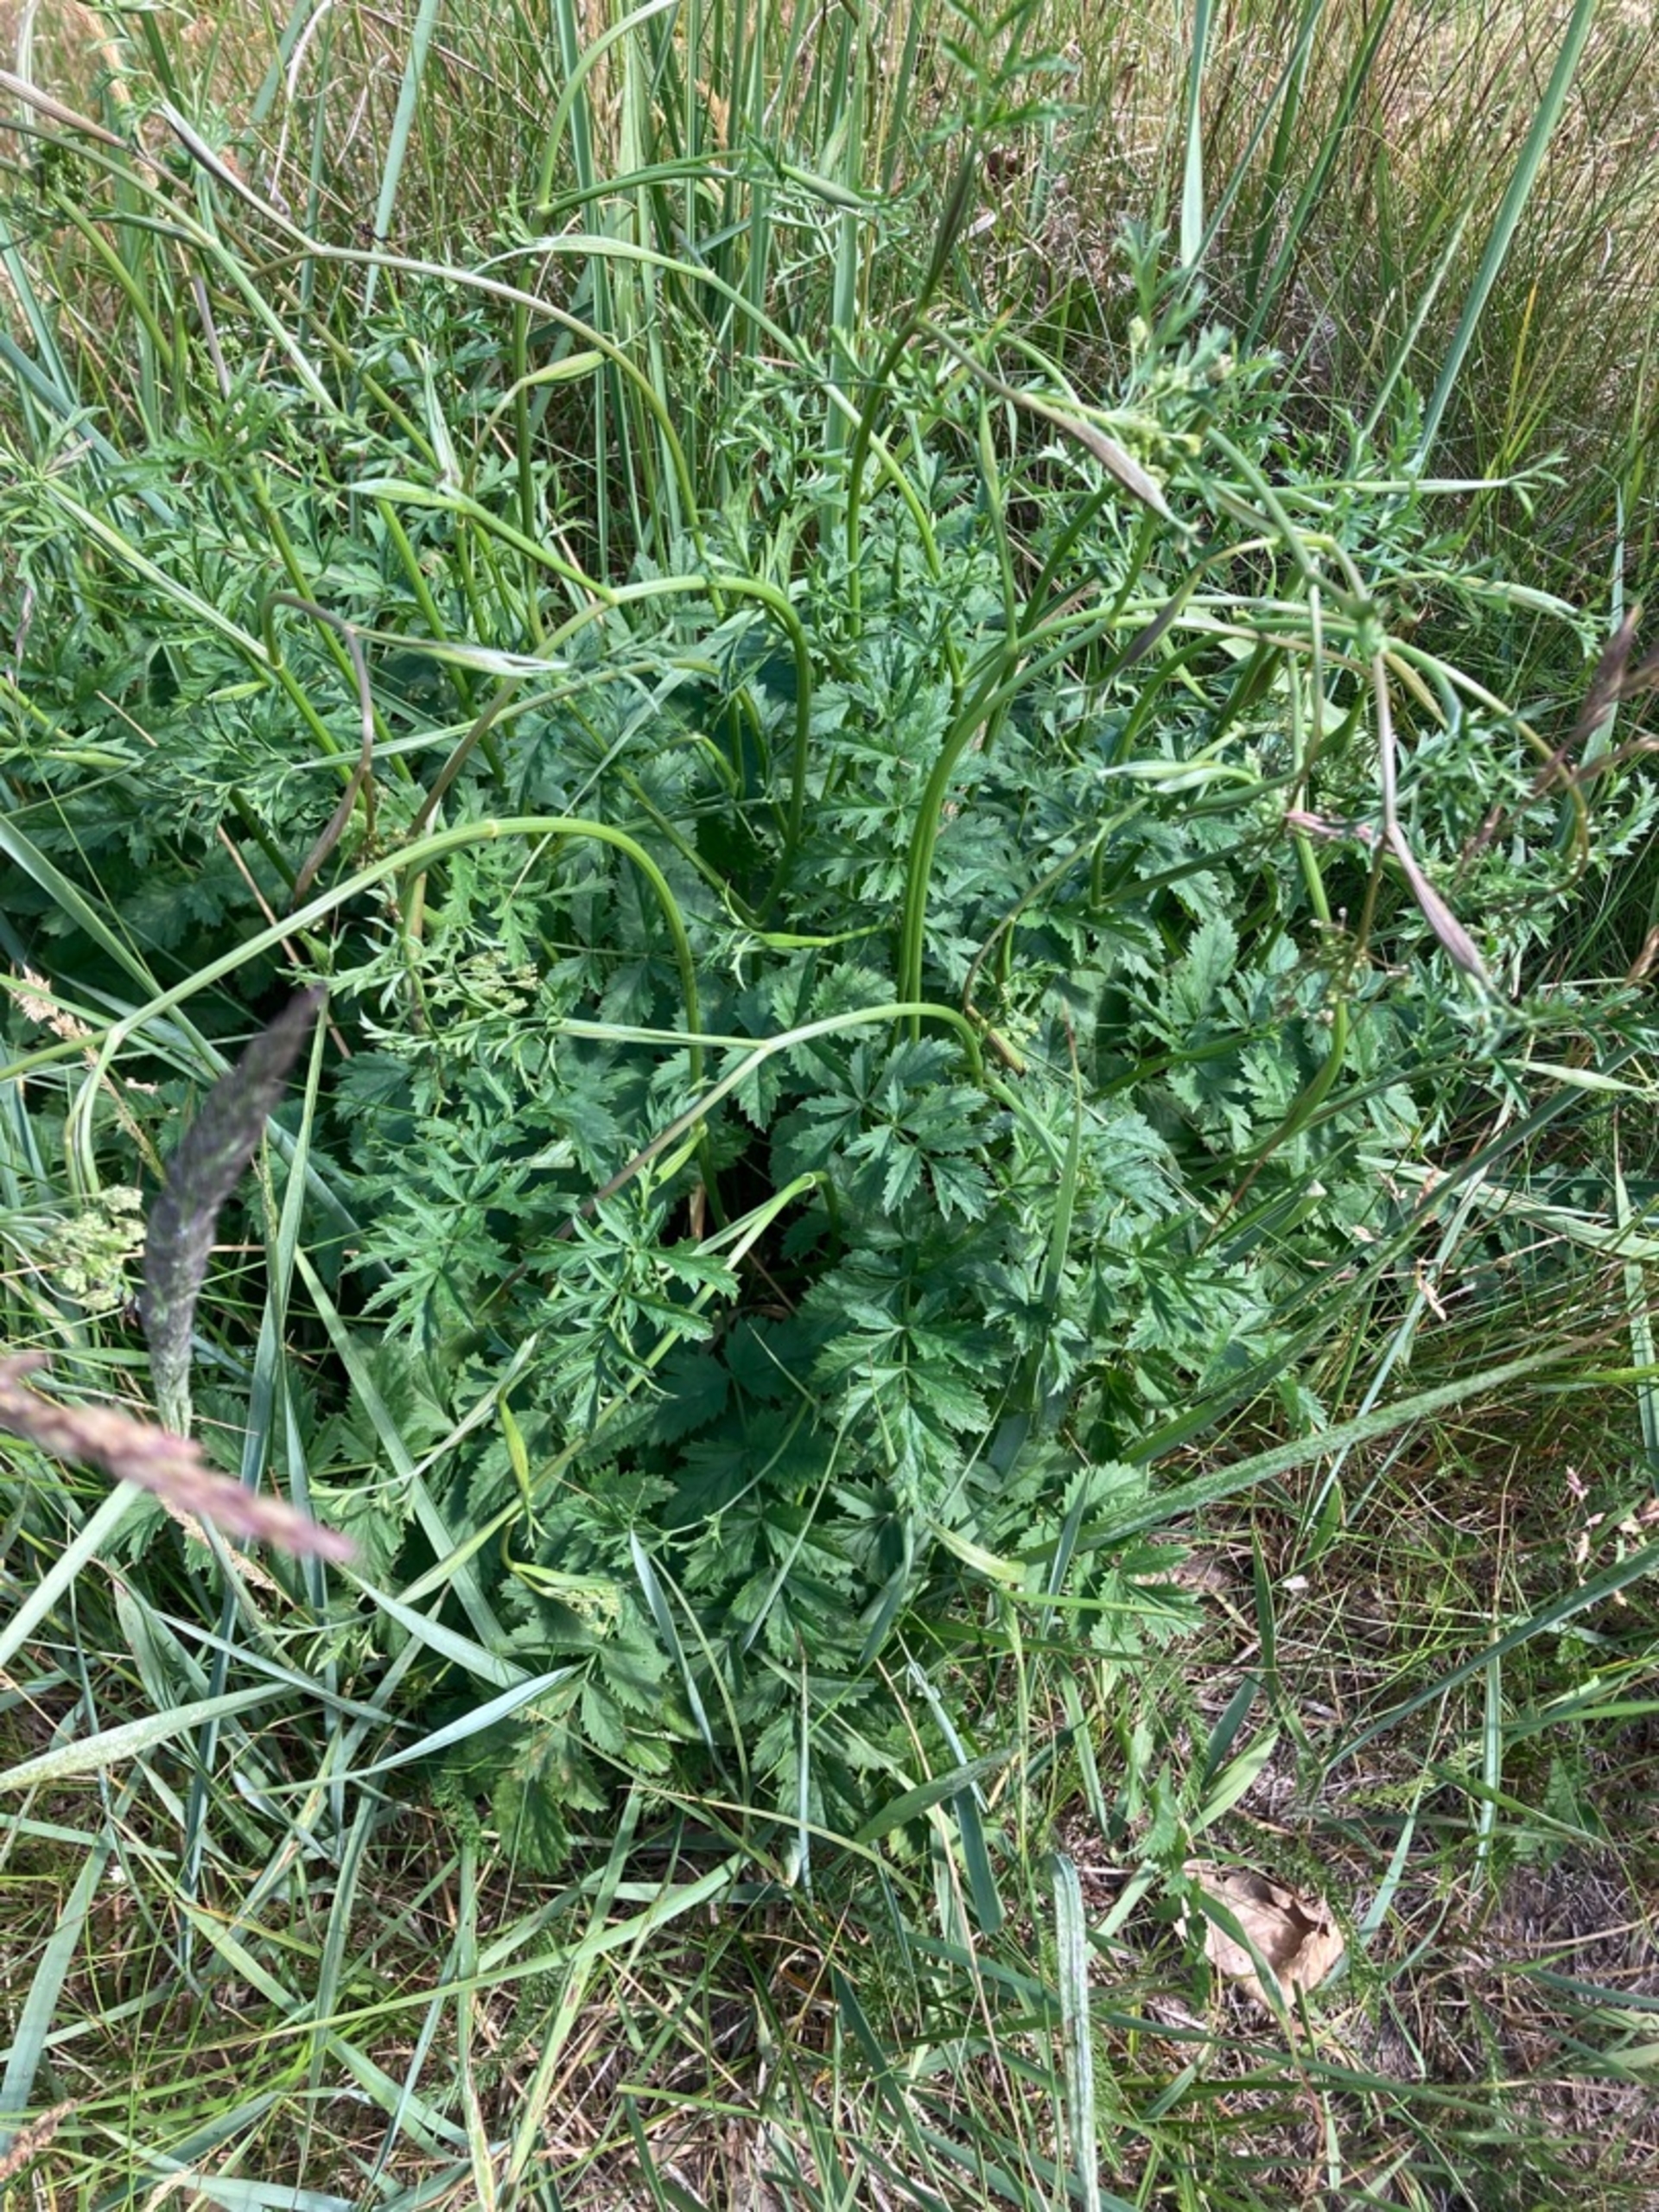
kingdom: Plantae
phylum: Tracheophyta
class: Magnoliopsida
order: Apiales
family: Apiaceae
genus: Pimpinella
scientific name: Pimpinella saxifraga
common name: Almindelig pimpinelle
